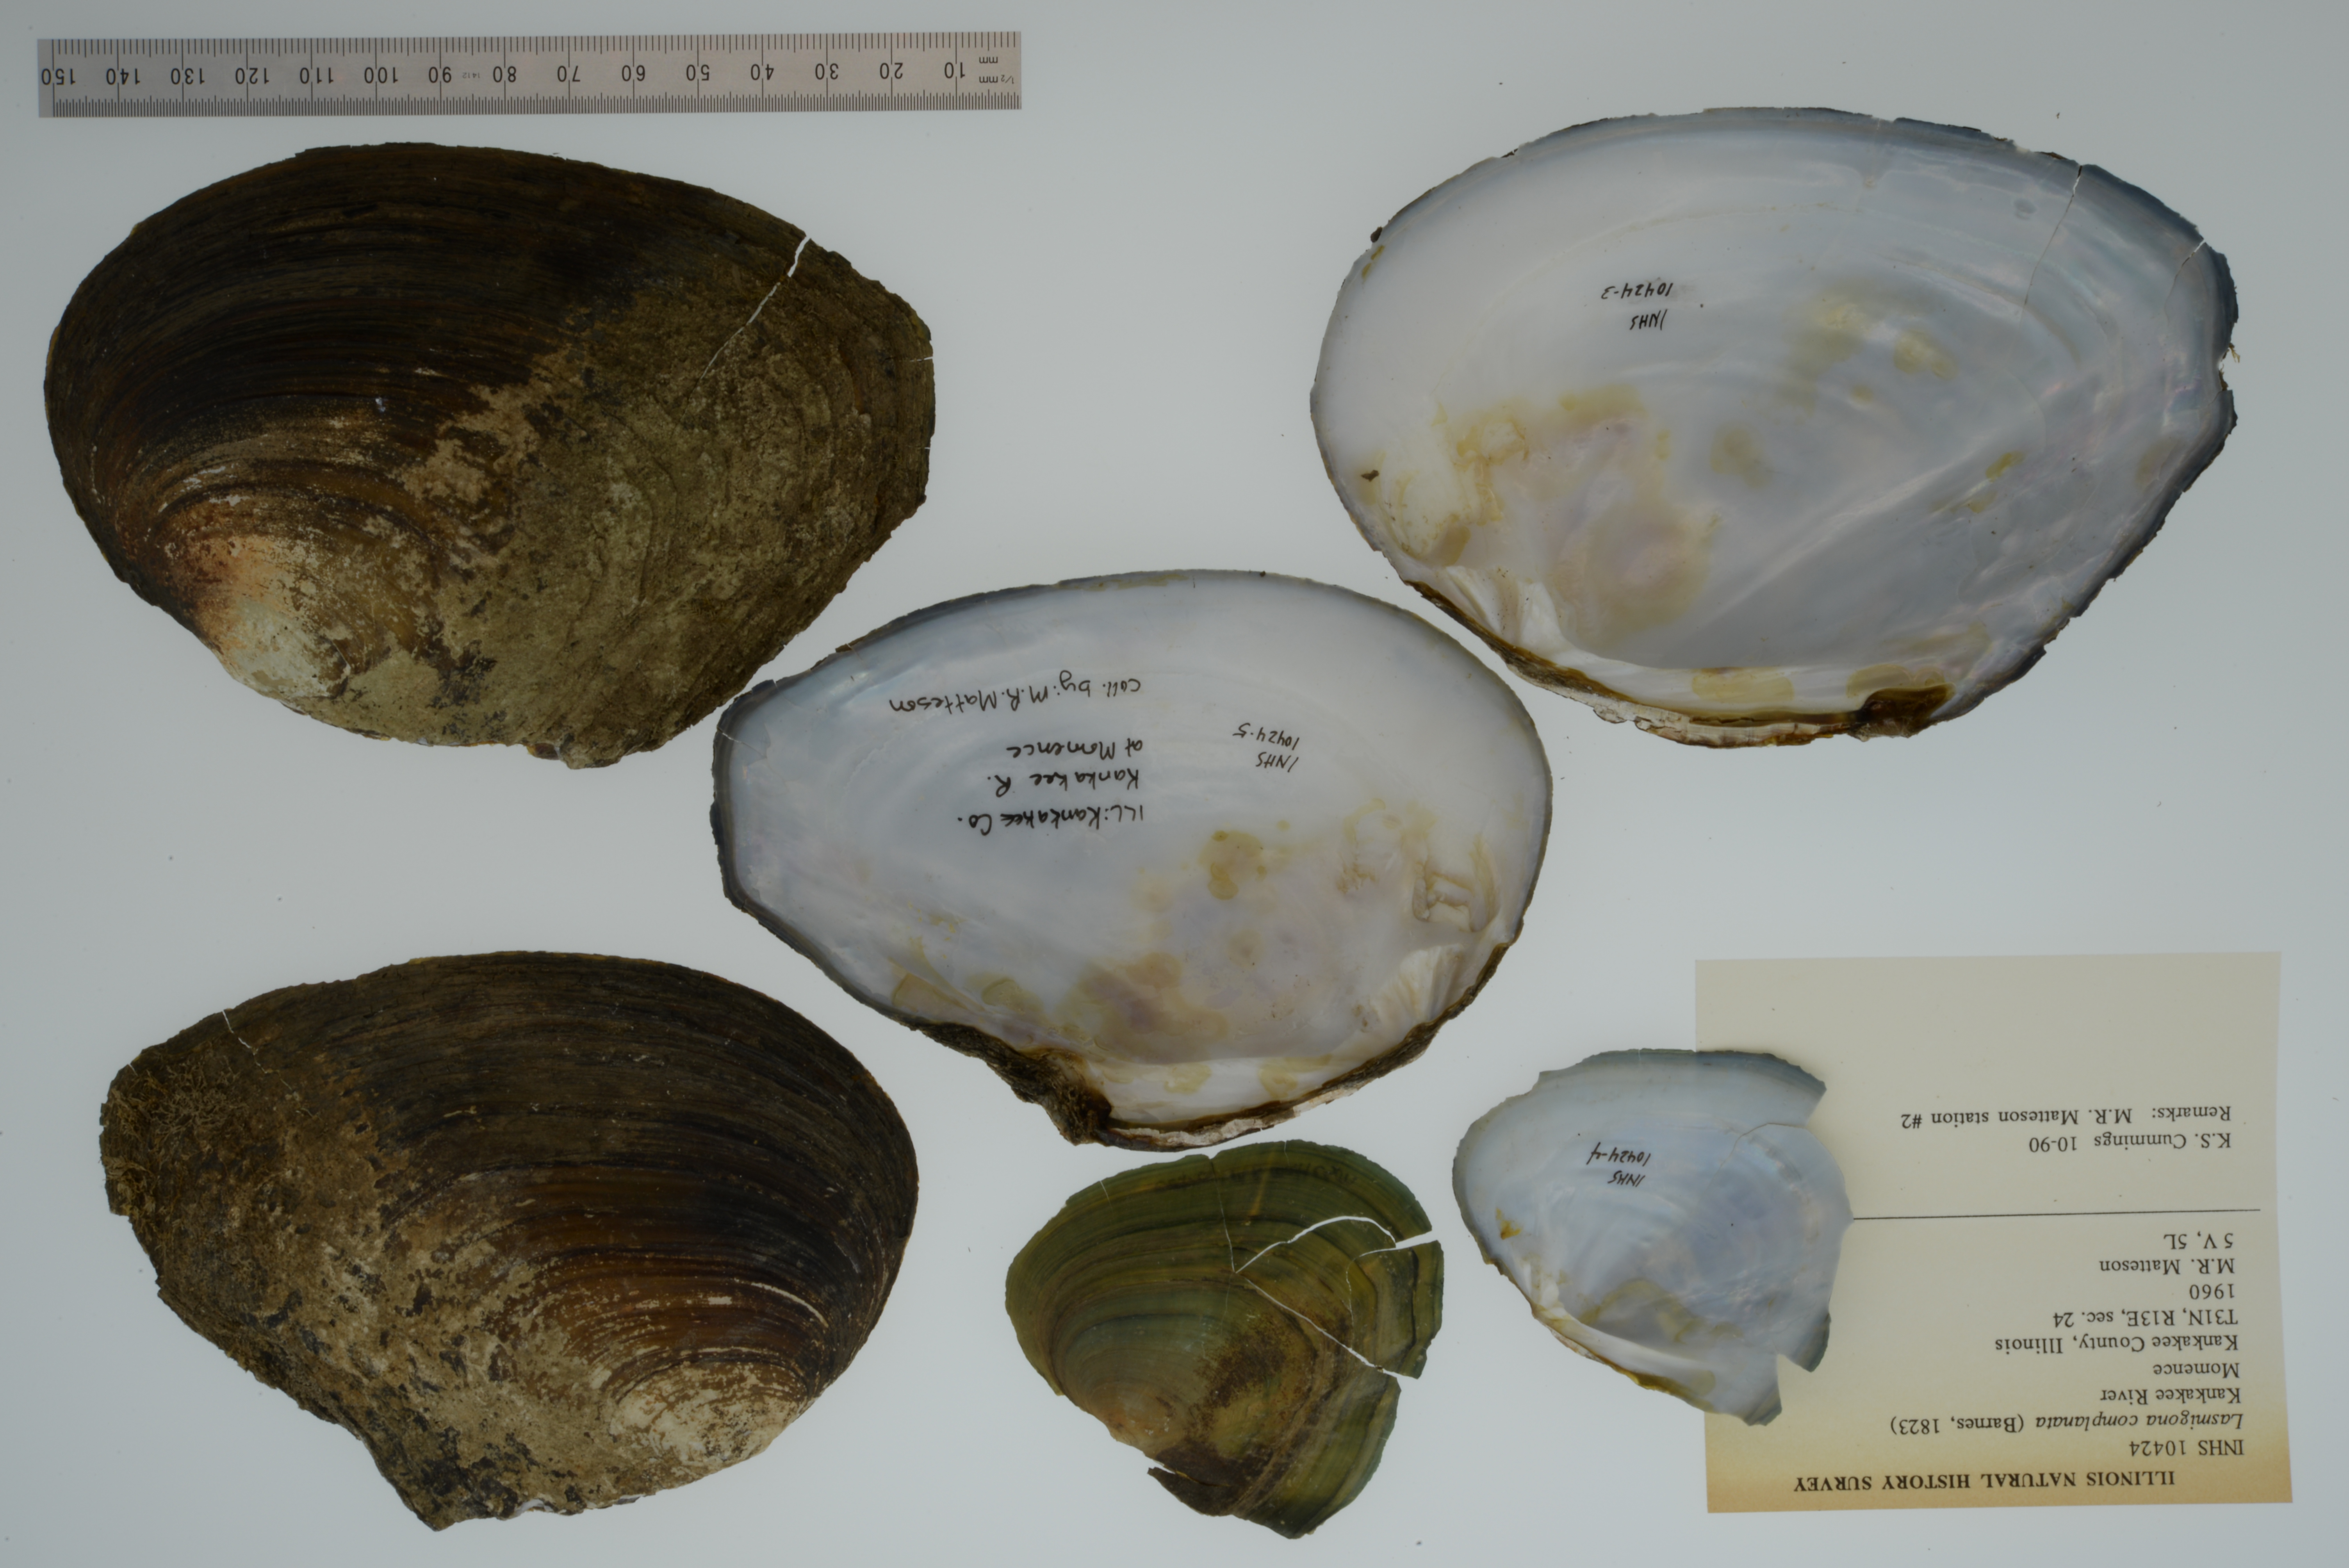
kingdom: Animalia
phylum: Mollusca
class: Bivalvia
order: Unionida
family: Unionidae
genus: Lasmigona
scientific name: Lasmigona complanata
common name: White heelsplitter
